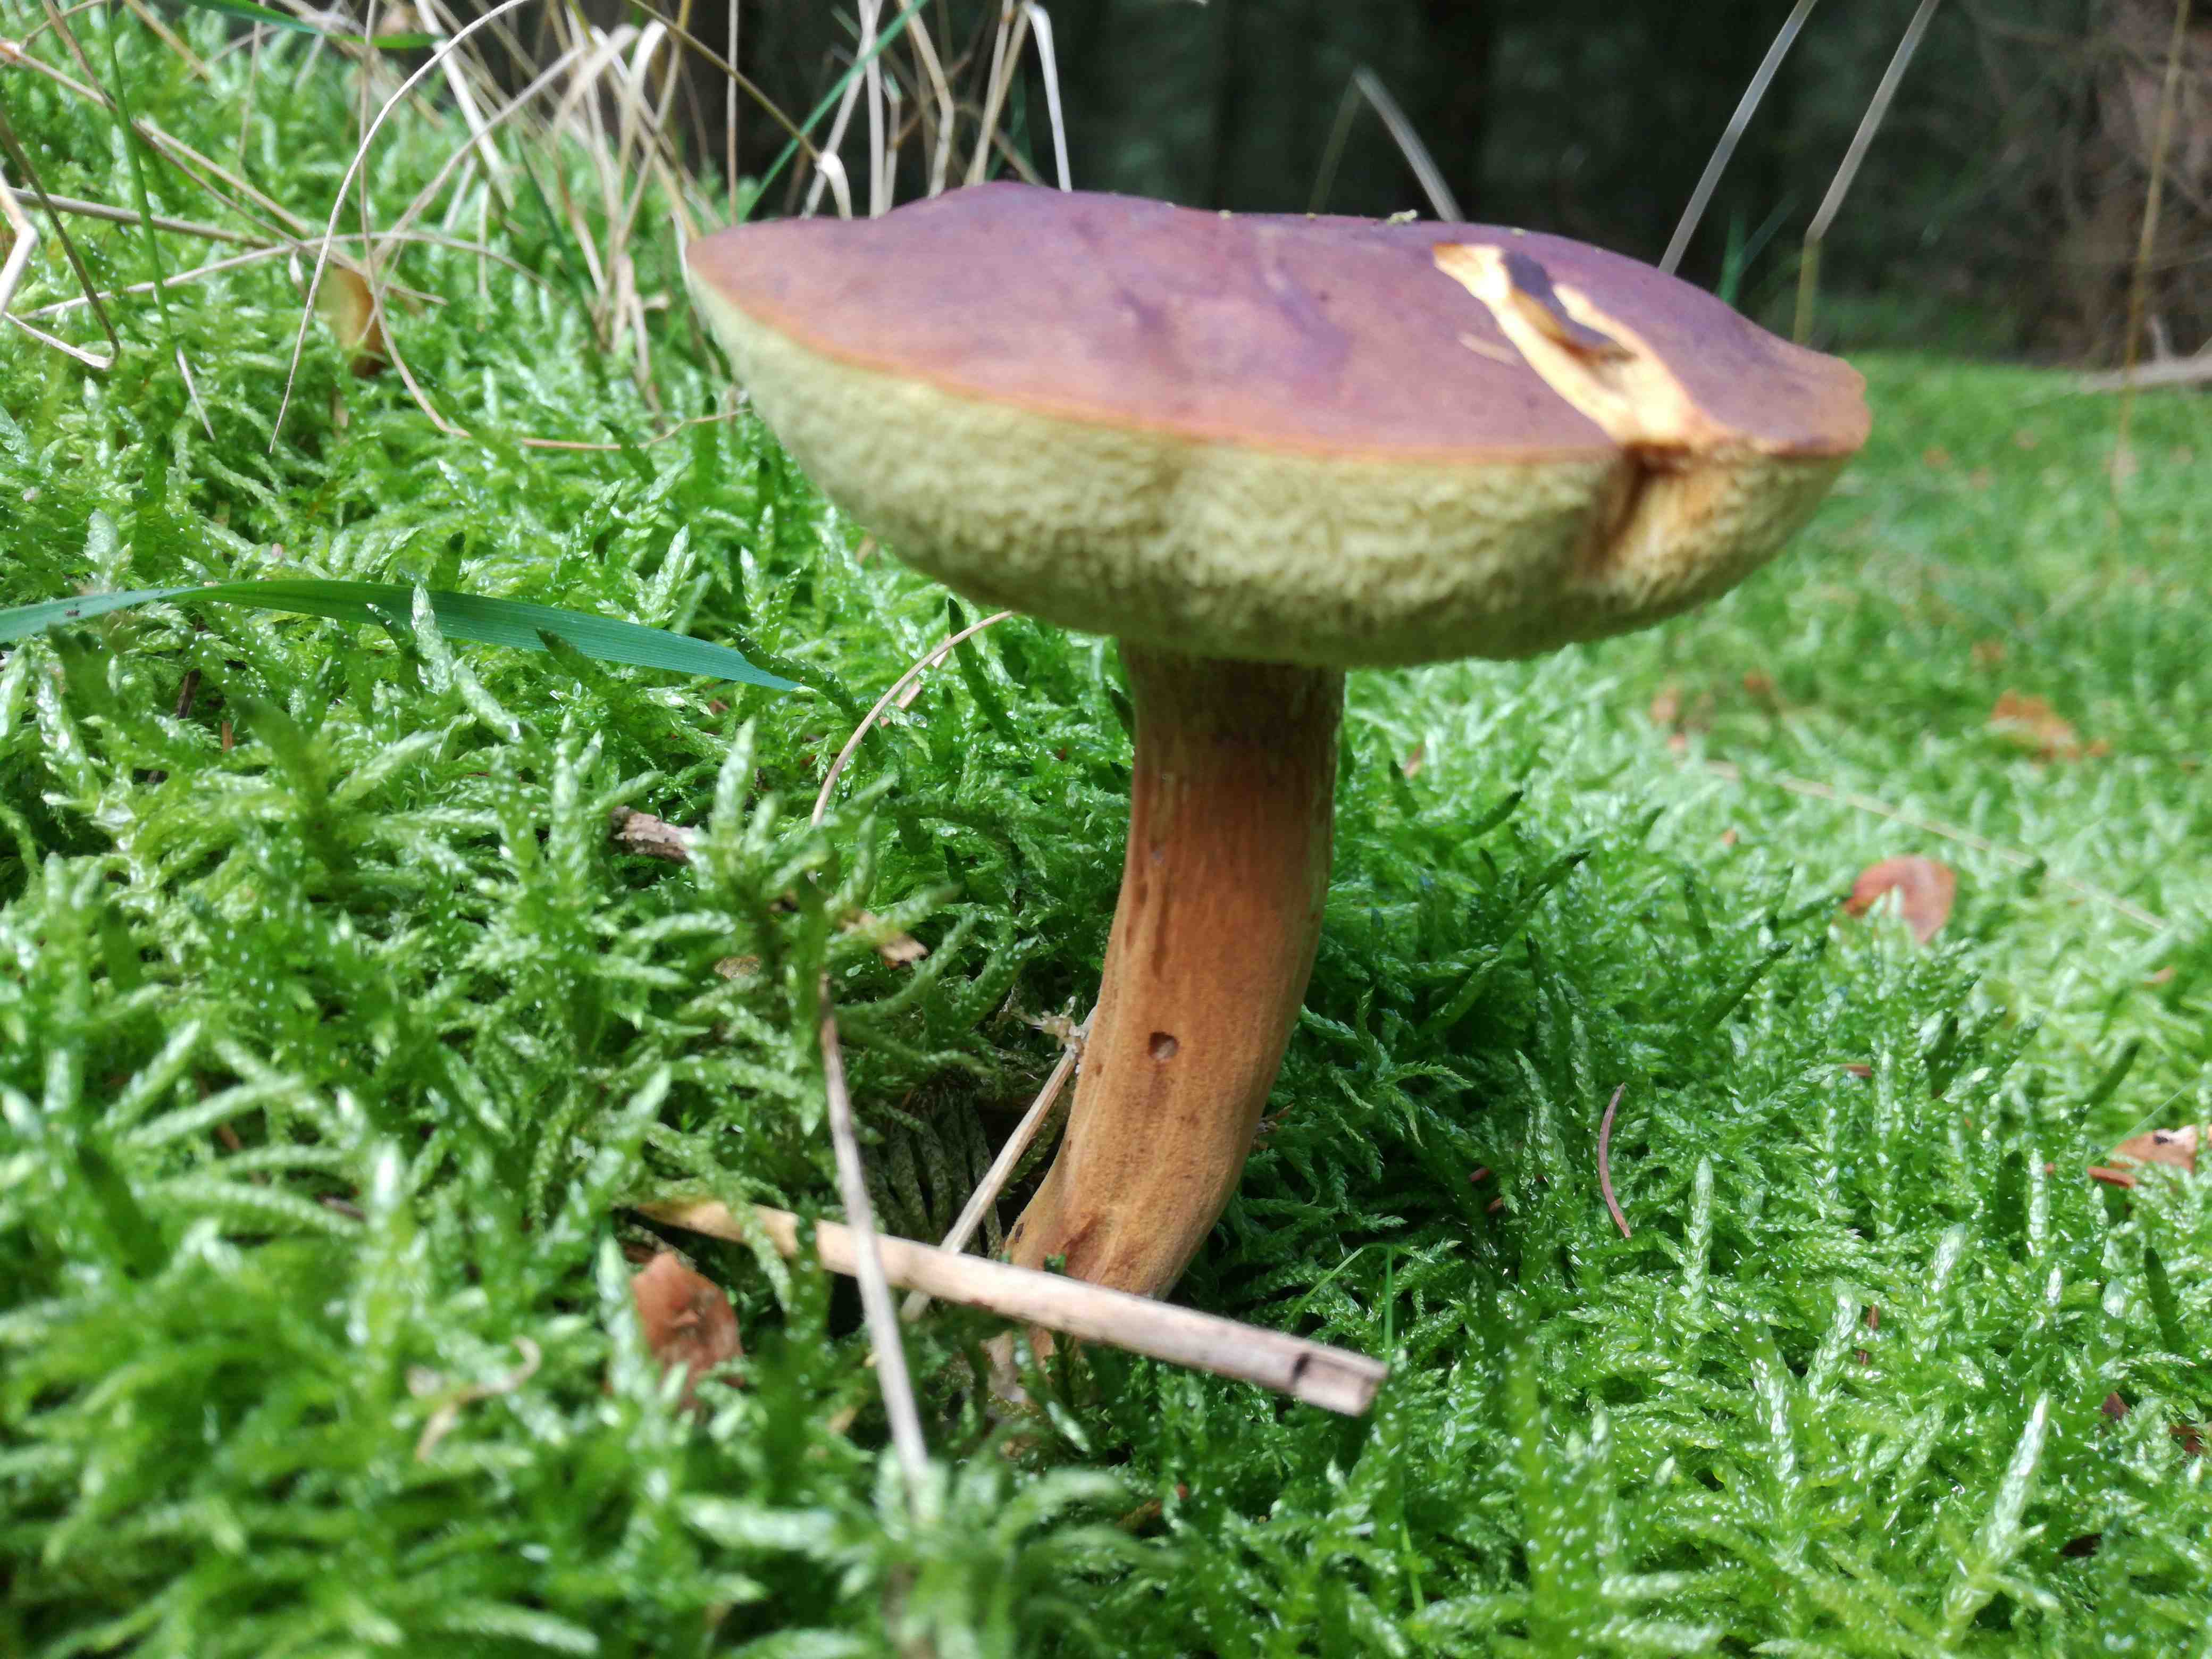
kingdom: Fungi
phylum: Basidiomycota
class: Agaricomycetes
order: Boletales
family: Boletaceae
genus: Imleria
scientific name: Imleria badia
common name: brunstokket rørhat
